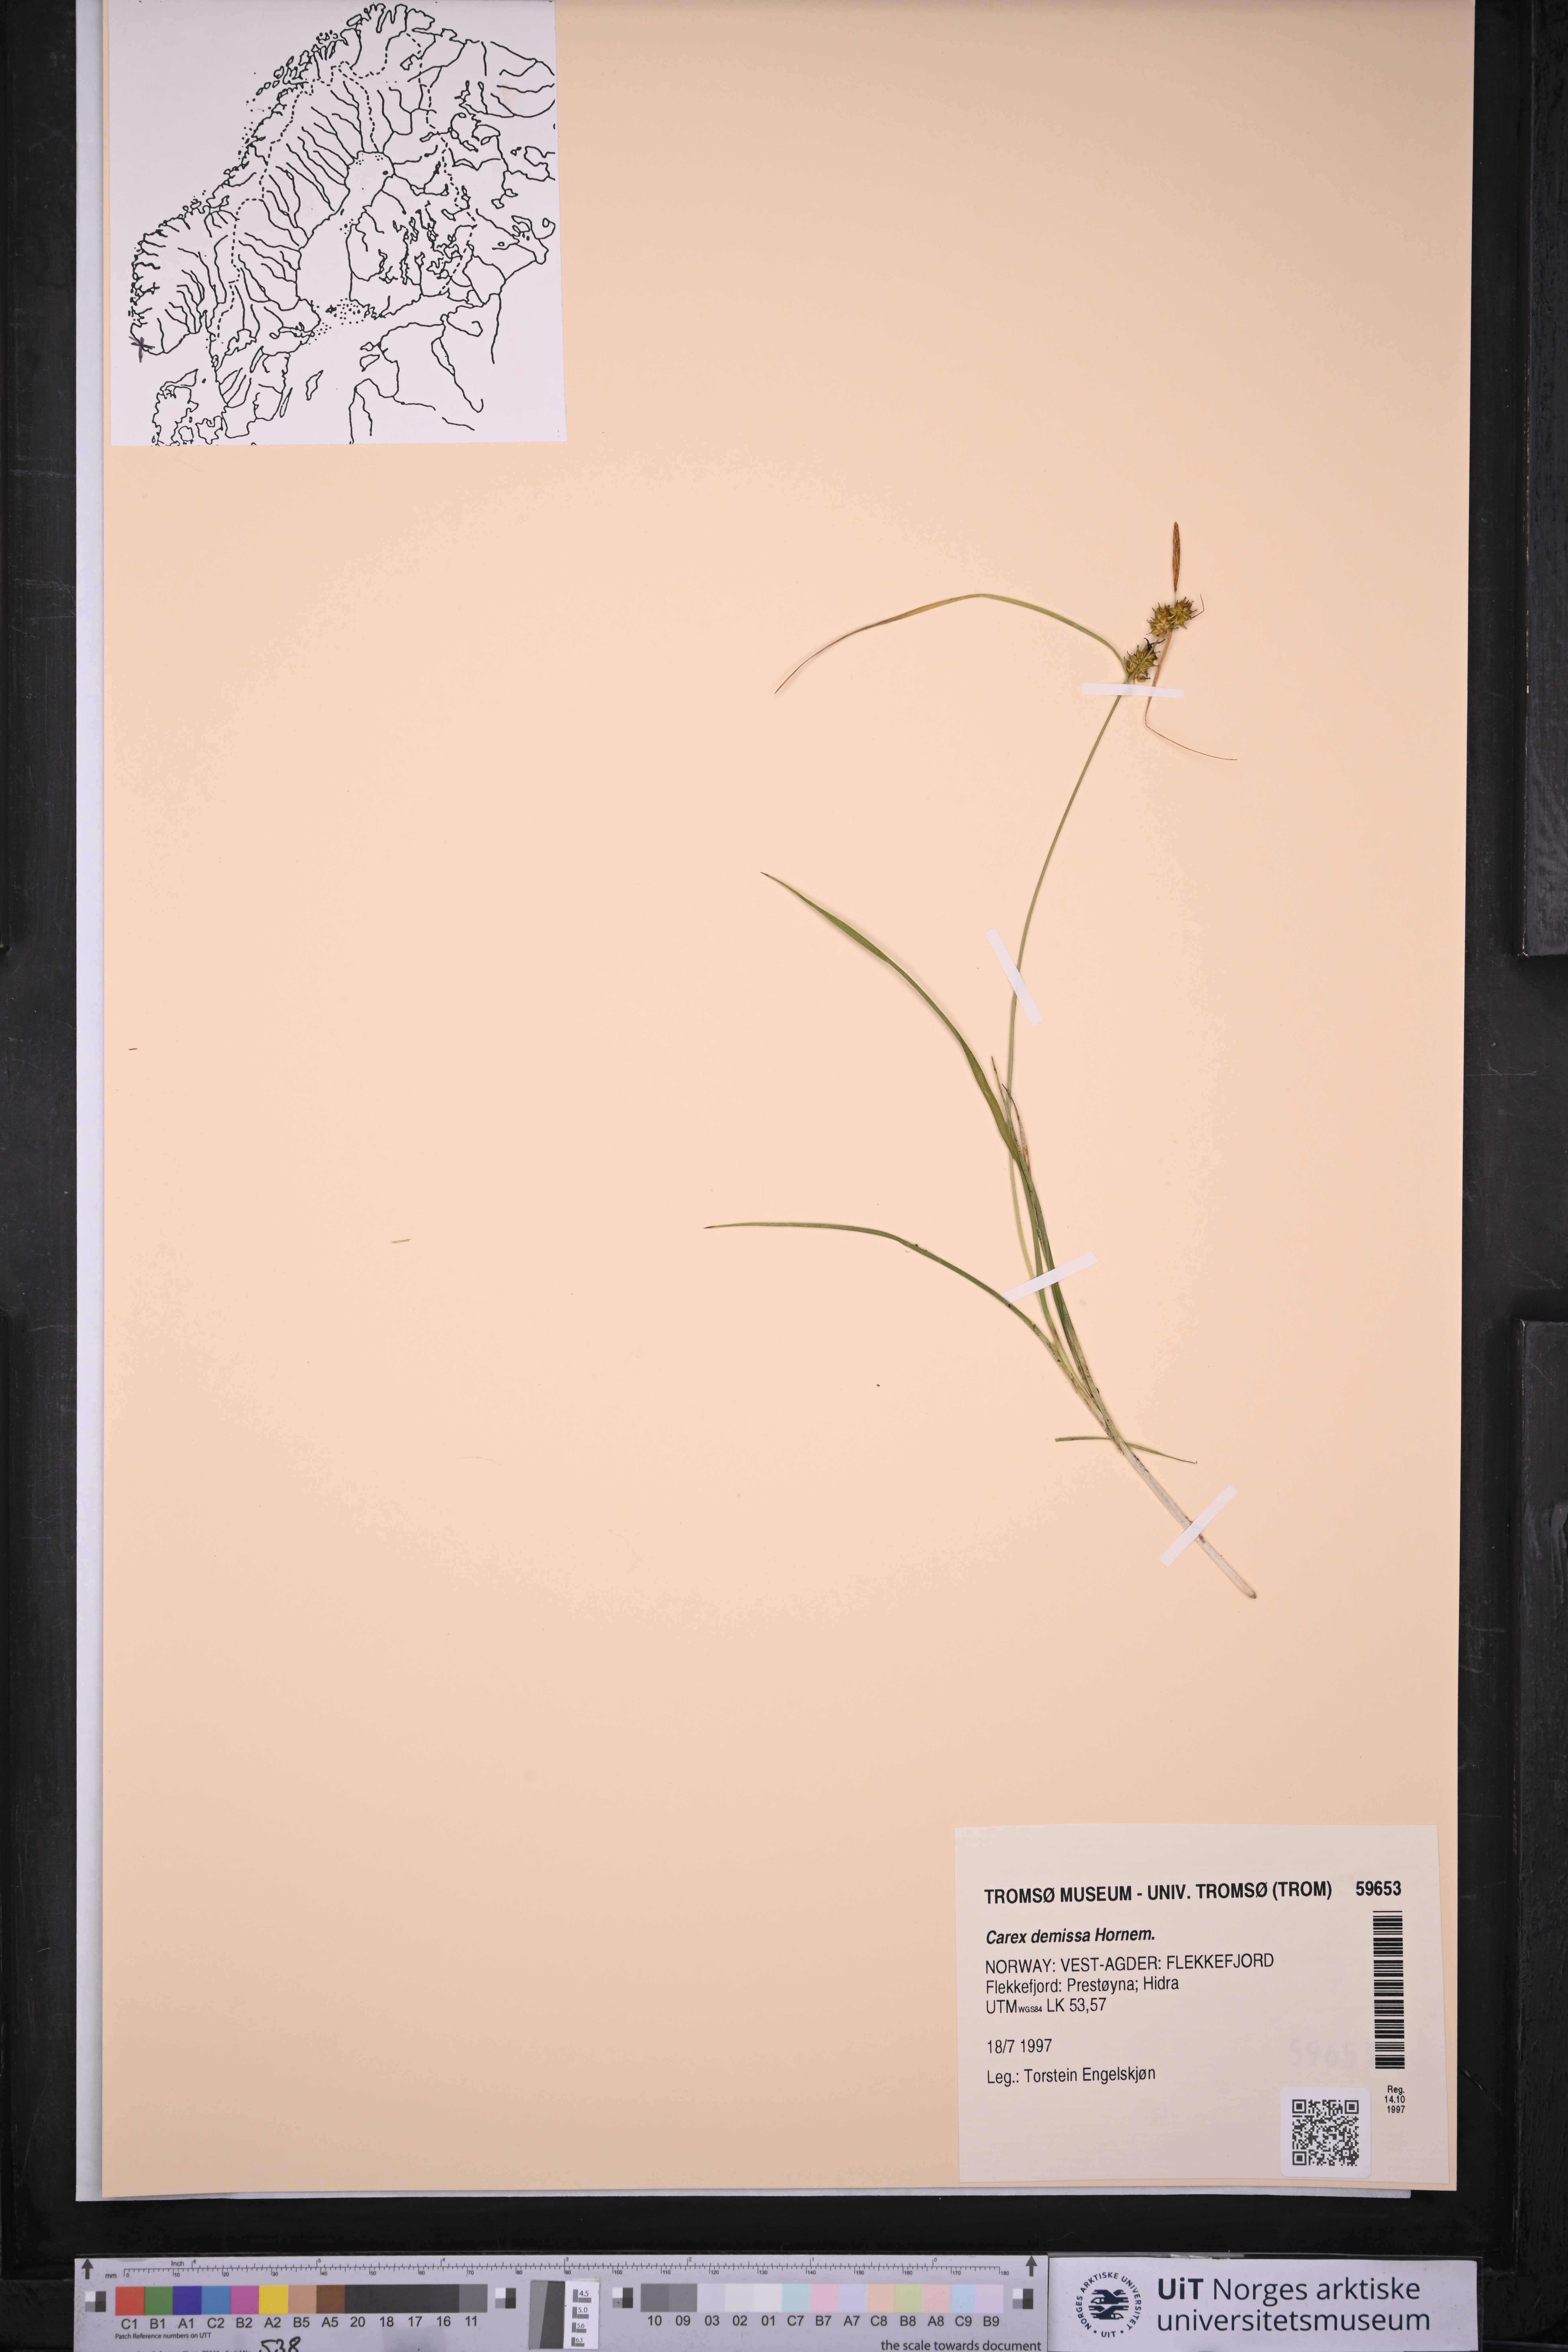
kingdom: Plantae
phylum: Tracheophyta
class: Liliopsida
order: Poales
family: Cyperaceae
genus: Carex
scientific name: Carex demissa
